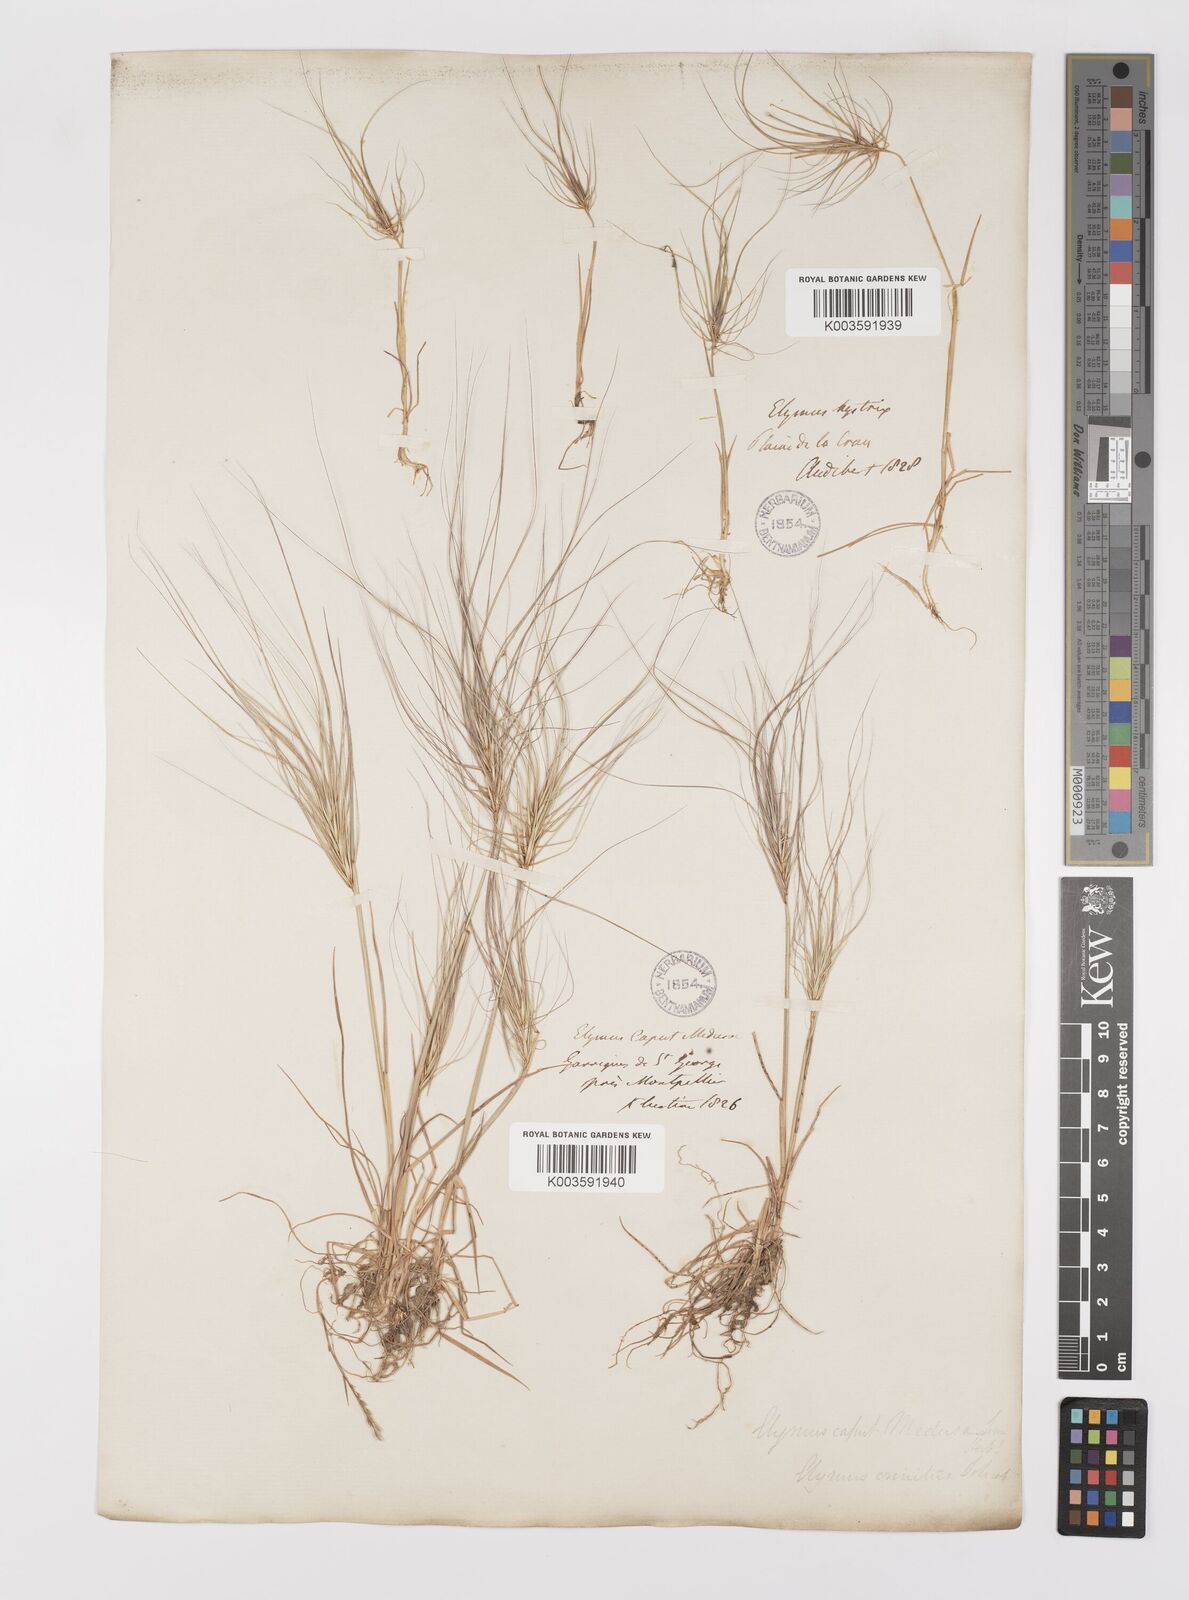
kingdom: Plantae
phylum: Tracheophyta
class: Liliopsida
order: Poales
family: Poaceae
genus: Taeniatherum
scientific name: Taeniatherum caput-medusae
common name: Medusahead
